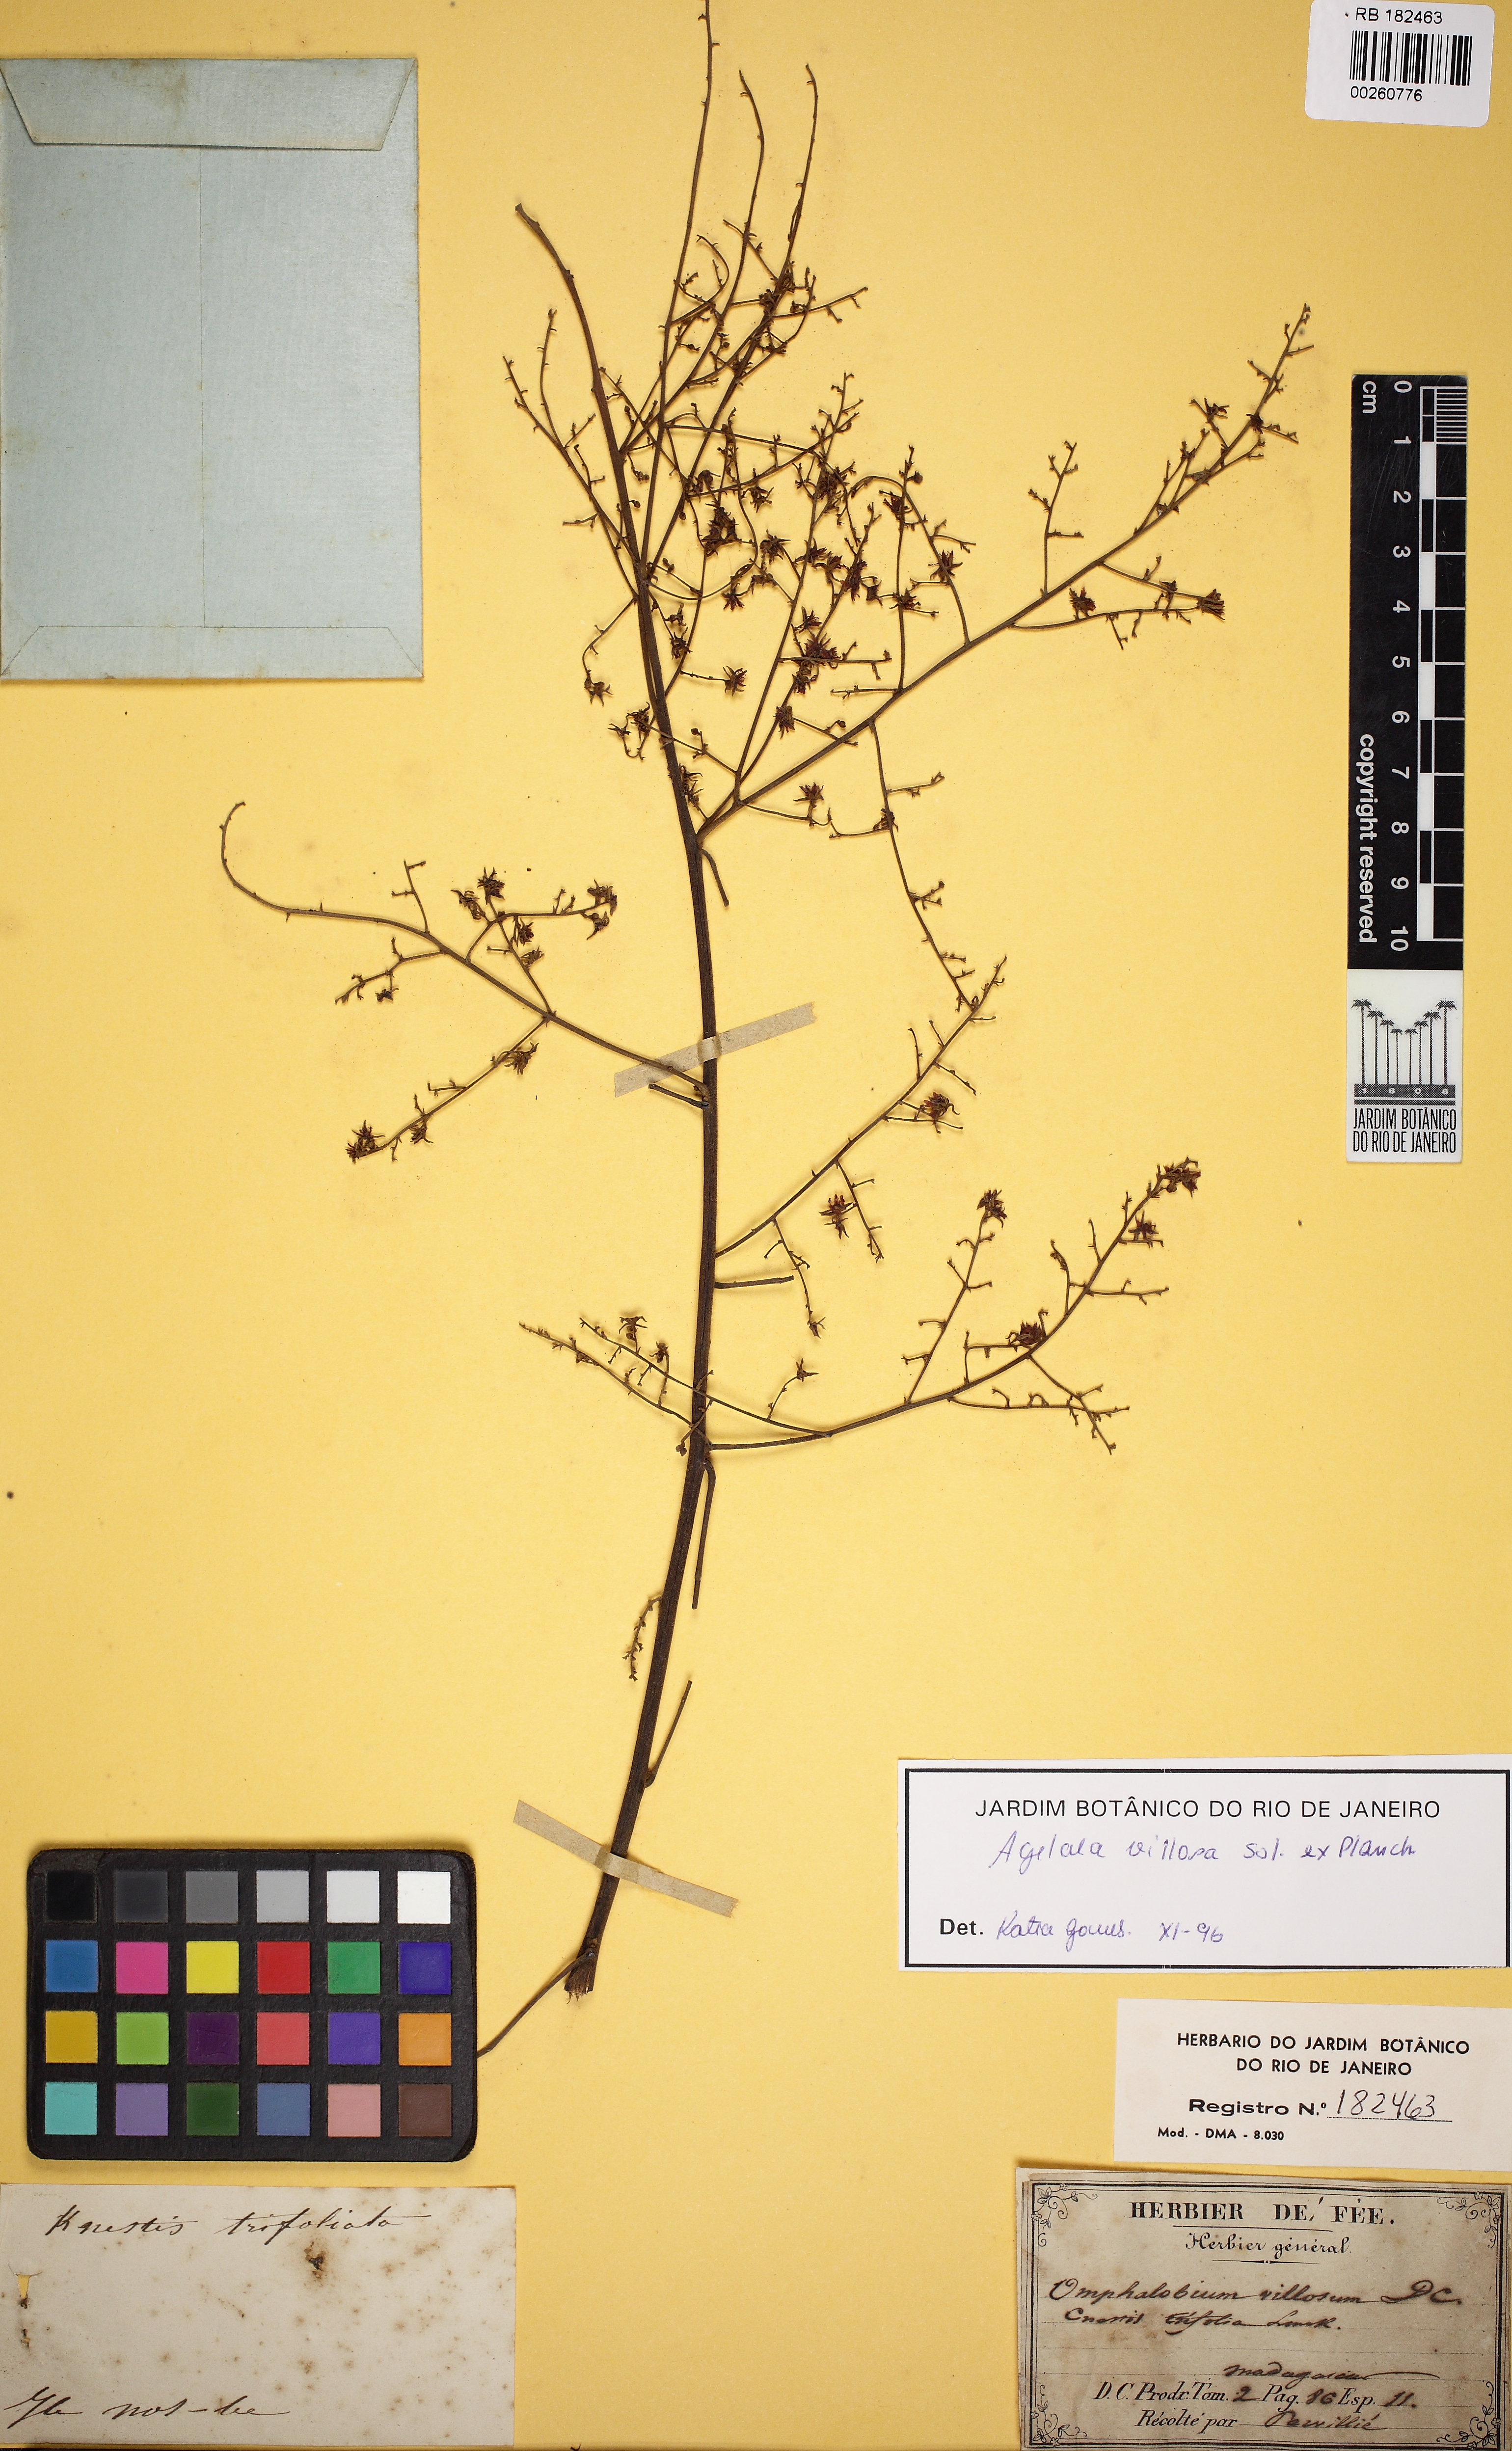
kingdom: Plantae
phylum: Tracheophyta
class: Magnoliopsida
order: Oxalidales
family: Connaraceae
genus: Agelaea
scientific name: Agelaea pentagyna
